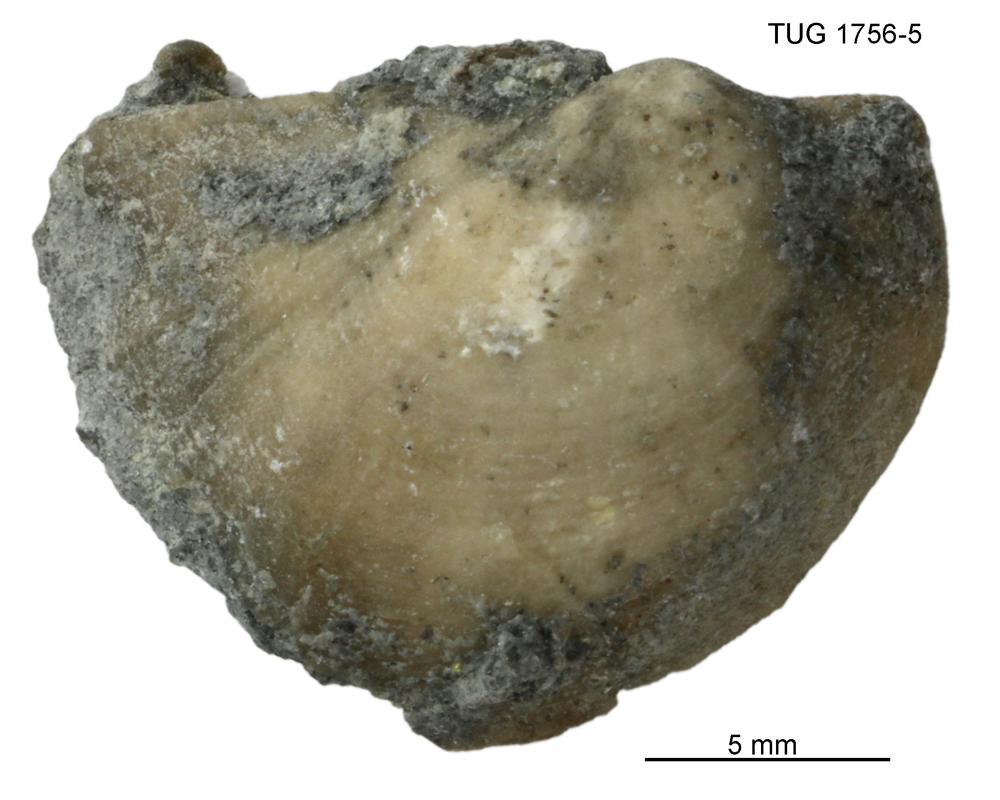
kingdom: Animalia
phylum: Mollusca
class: Bivalvia
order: Ostreida
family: Pterineidae
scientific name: Pterineidae
